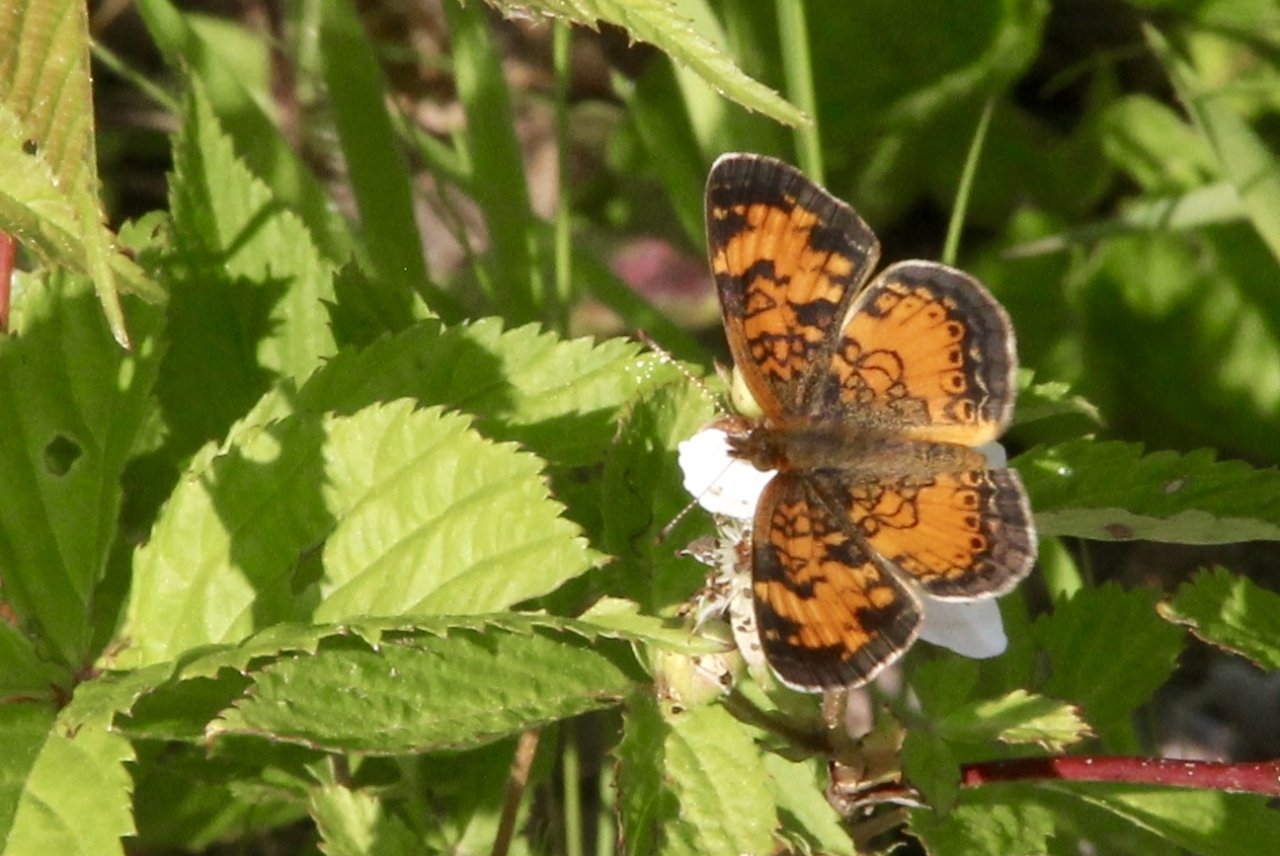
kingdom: Animalia
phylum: Arthropoda
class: Insecta
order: Lepidoptera
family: Nymphalidae
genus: Phyciodes
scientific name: Phyciodes tharos
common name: Northern Crescent
